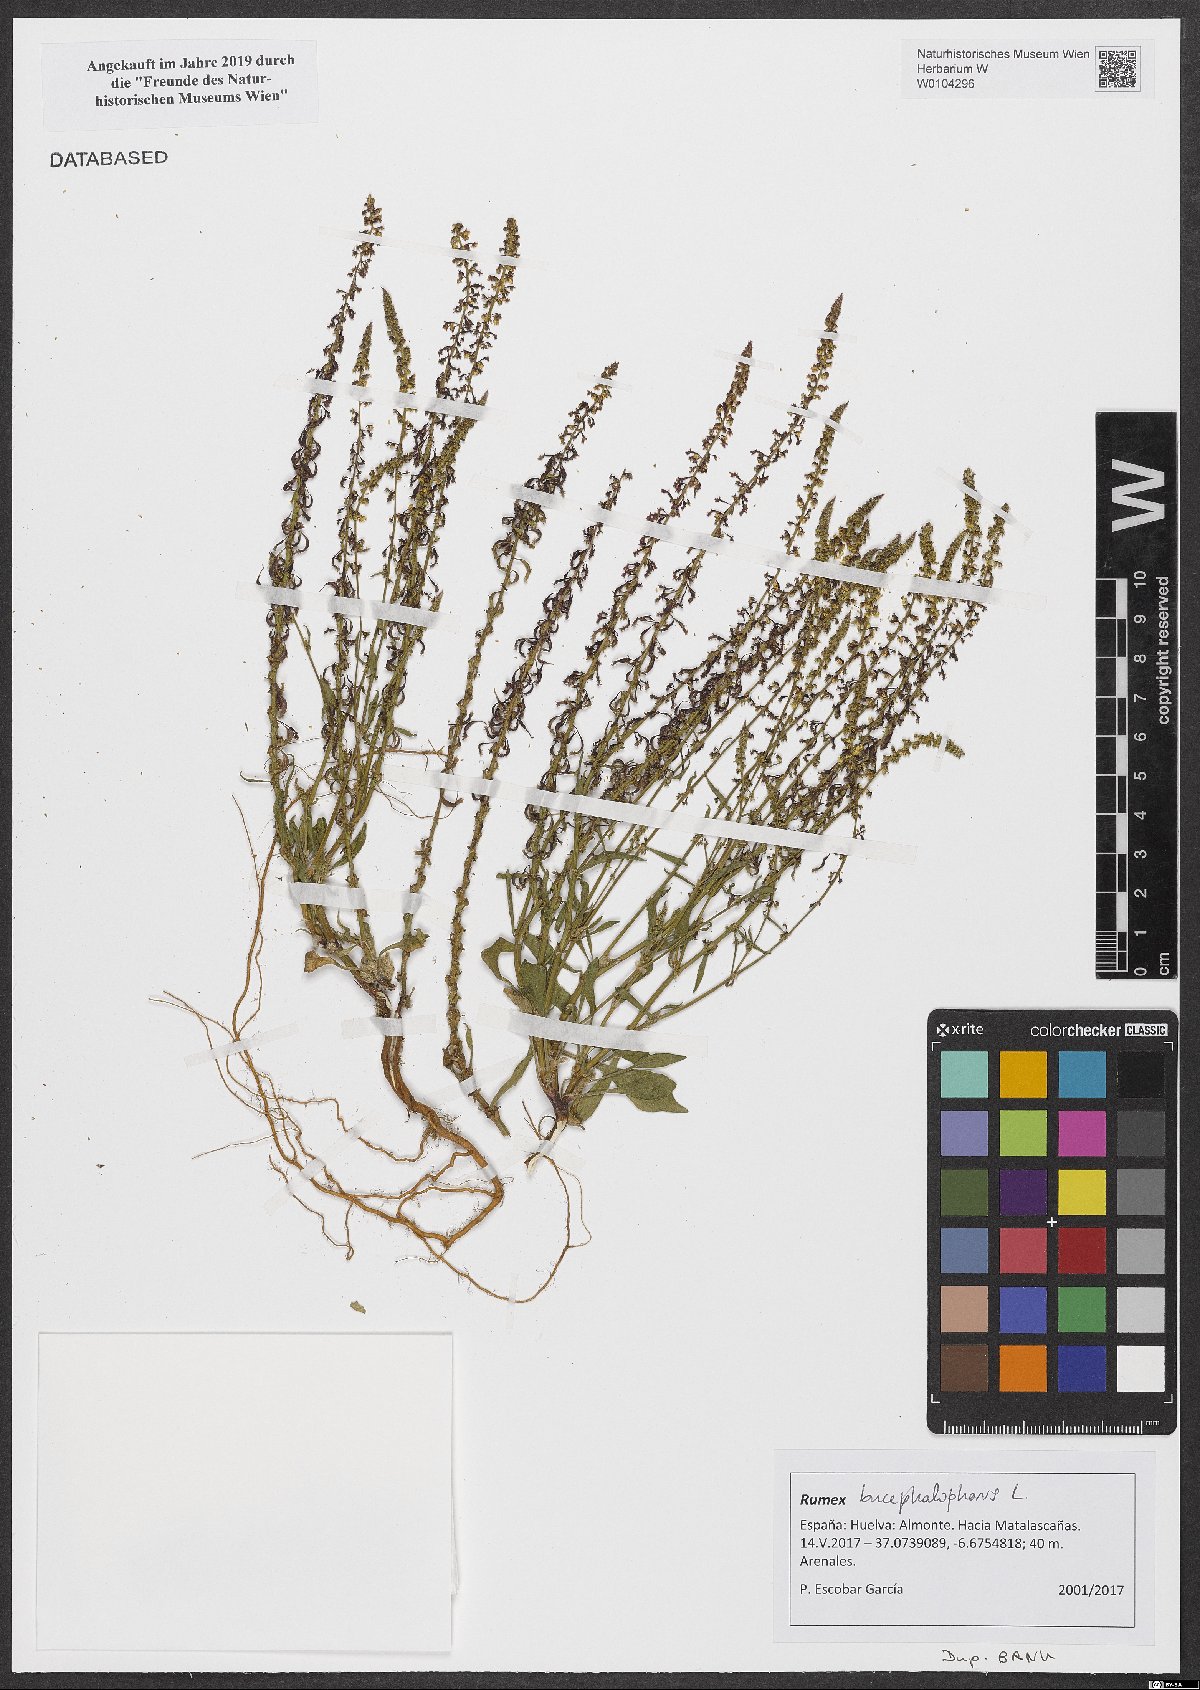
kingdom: Plantae
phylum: Tracheophyta
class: Magnoliopsida
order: Caryophyllales
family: Polygonaceae
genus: Rumex
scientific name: Rumex bucephalophorus
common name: Red dock
